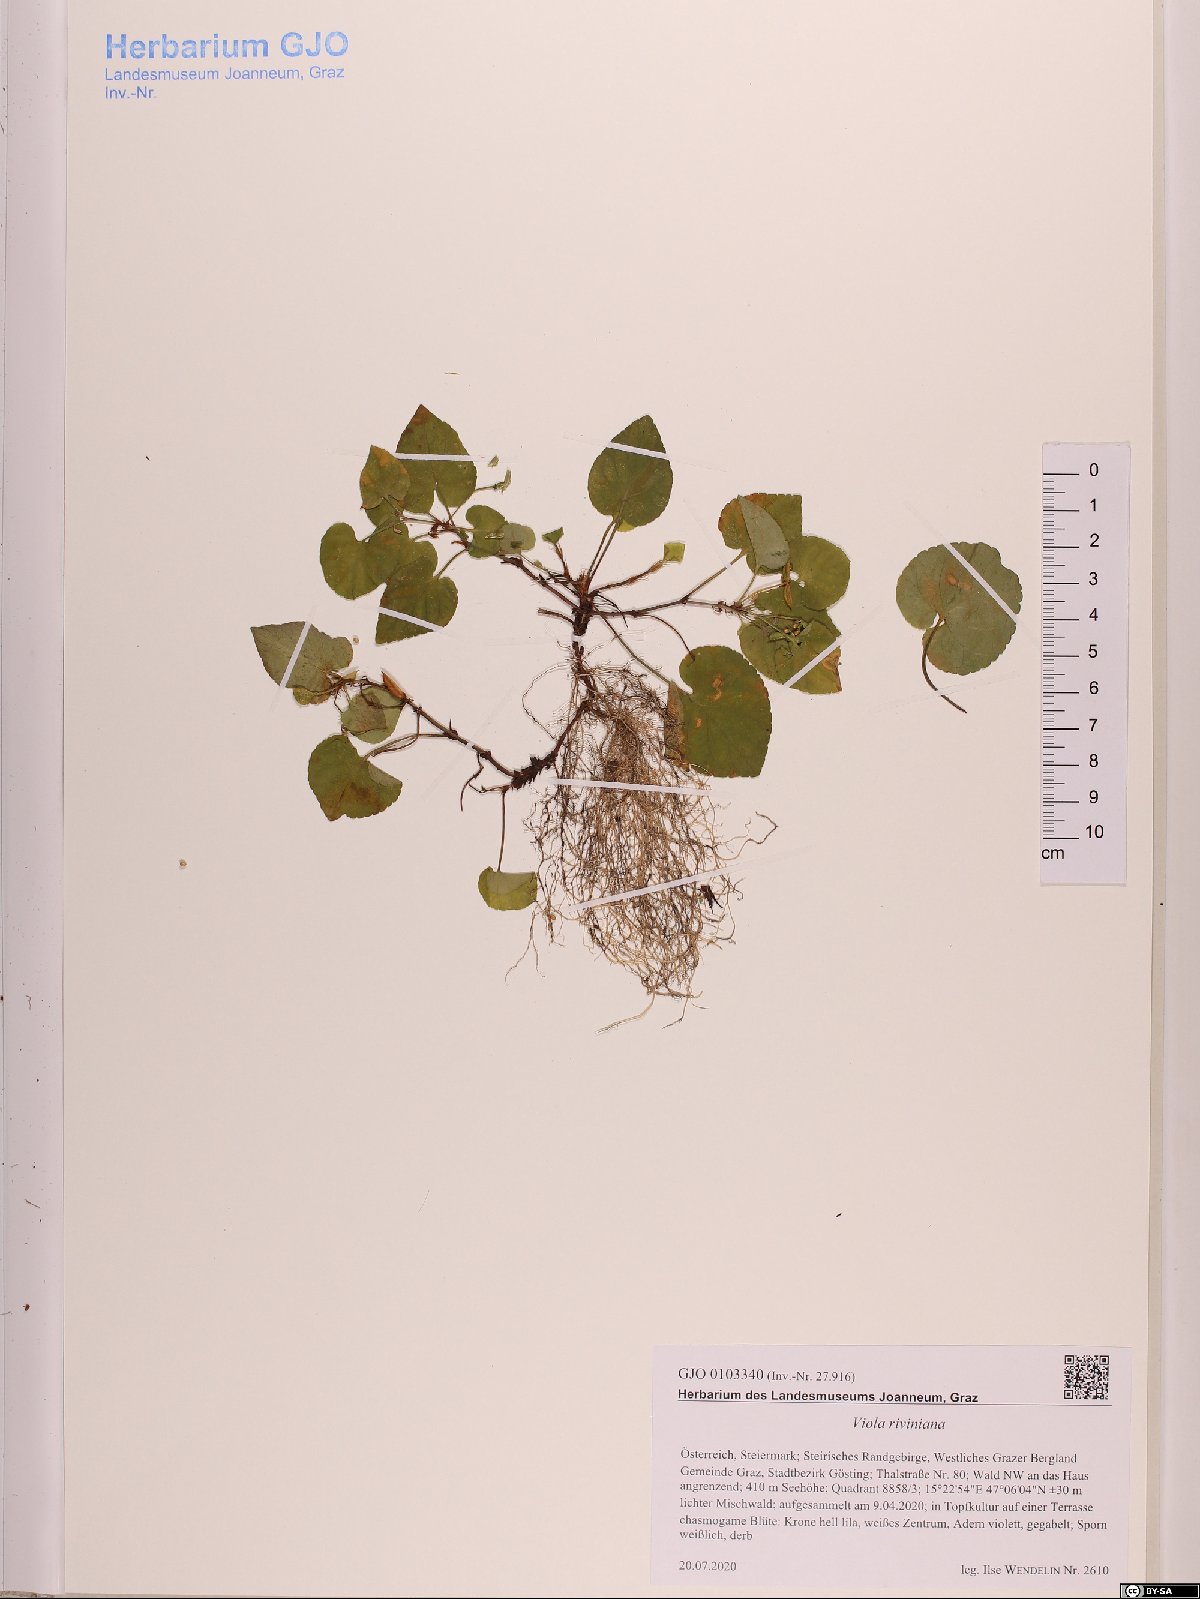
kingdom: Plantae
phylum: Tracheophyta
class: Magnoliopsida
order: Malpighiales
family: Violaceae
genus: Viola
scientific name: Viola riviniana
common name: Common dog-violet
